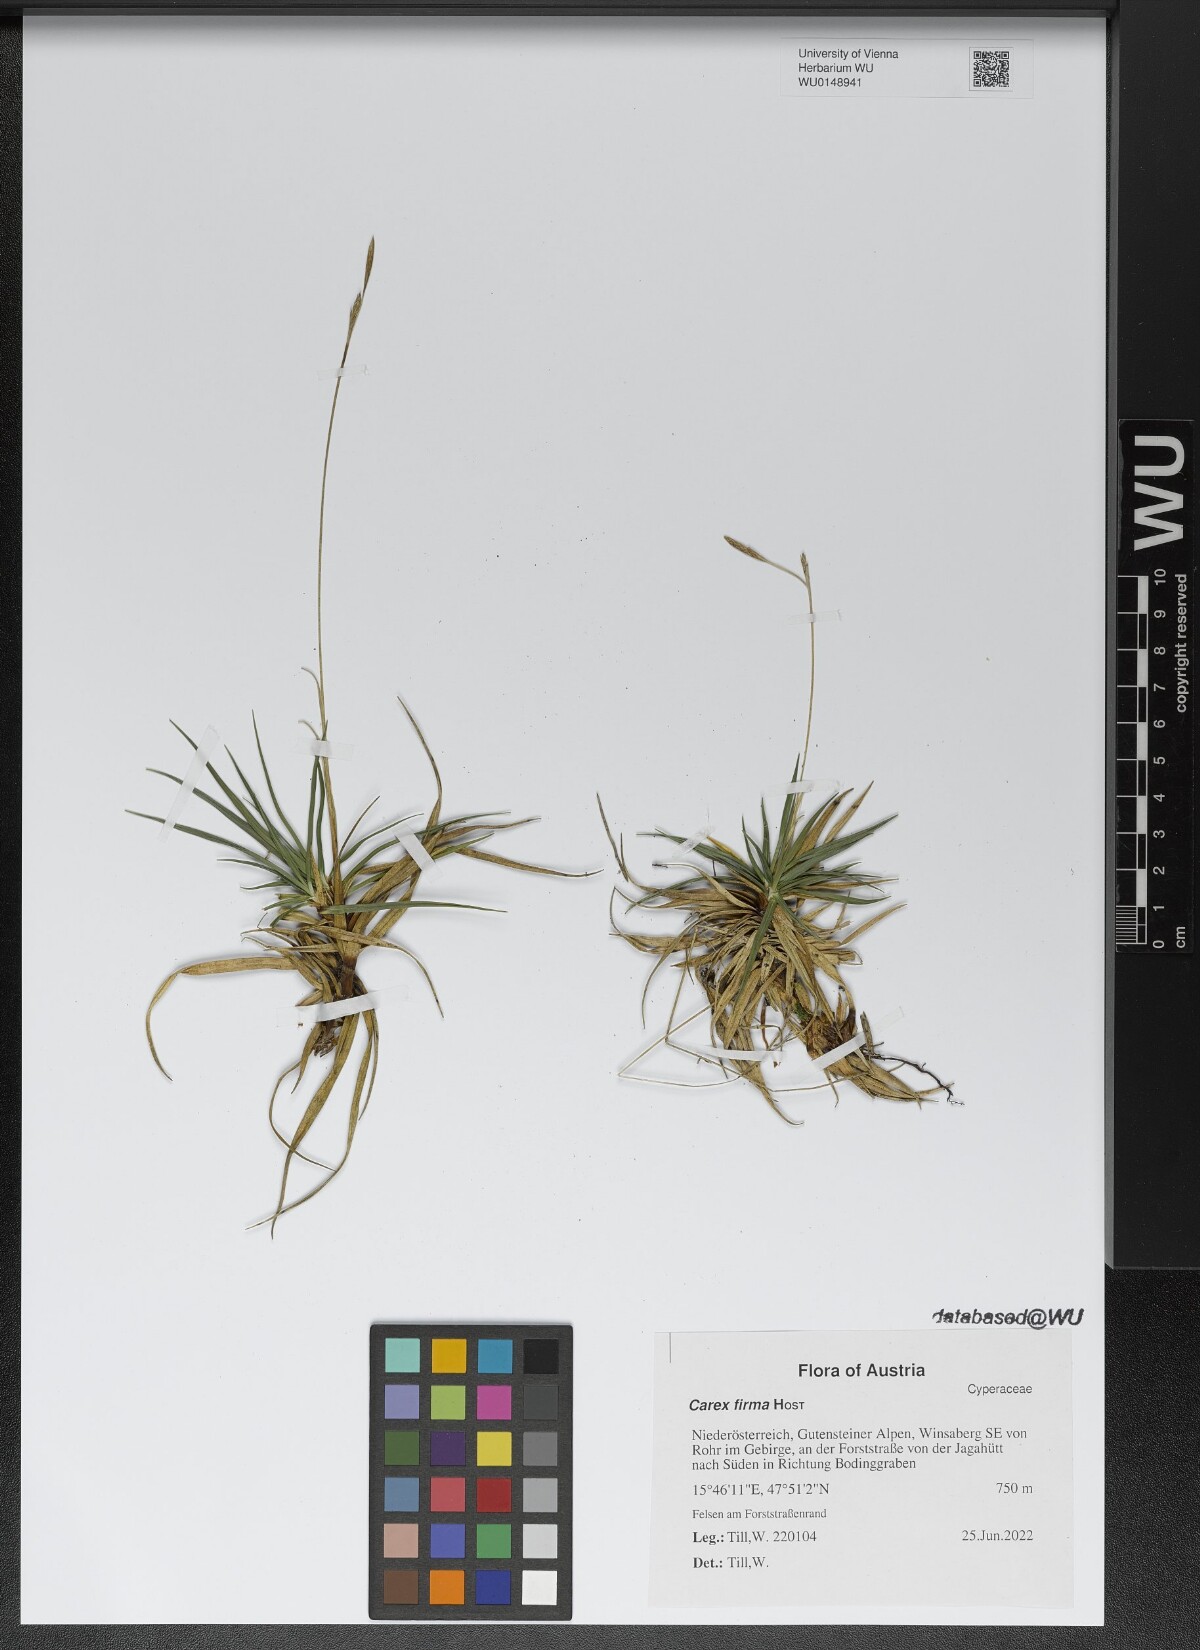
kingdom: Plantae
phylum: Tracheophyta
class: Liliopsida
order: Poales
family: Cyperaceae
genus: Carex
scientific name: Carex firma
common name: Dwarf pillow sedge
